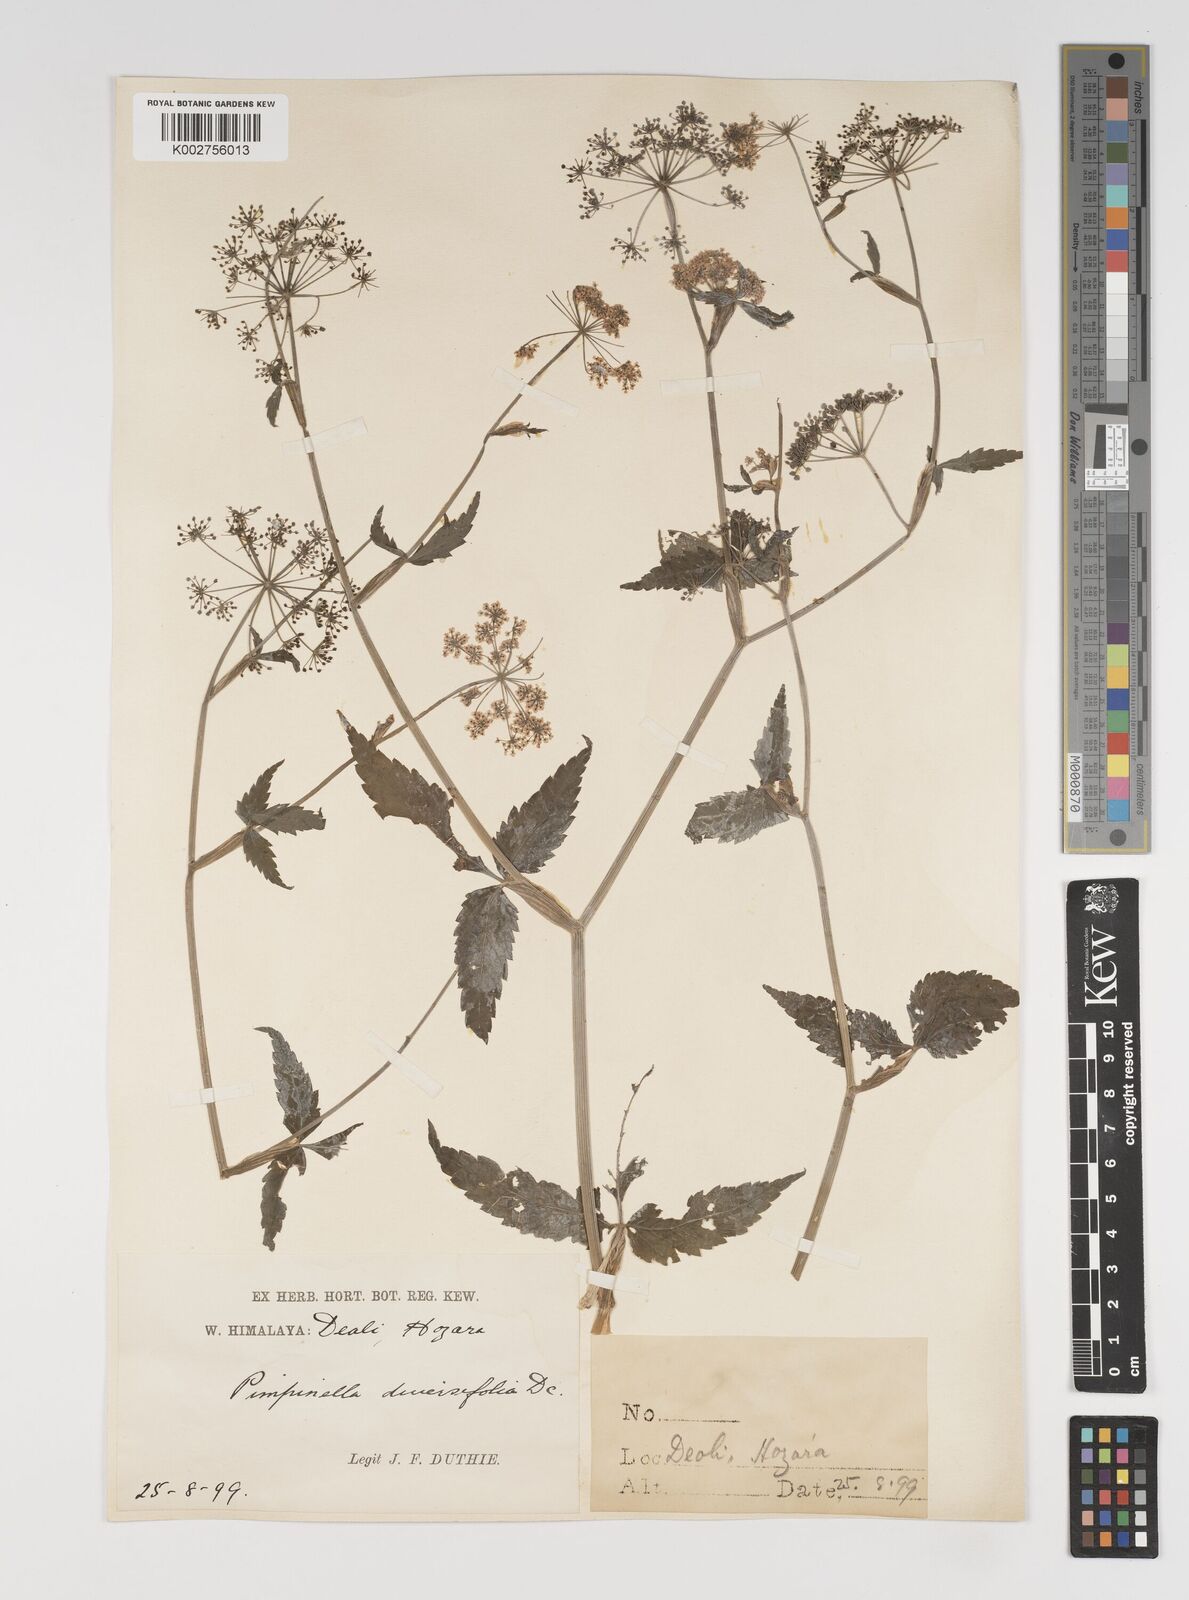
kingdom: Plantae
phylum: Tracheophyta
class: Magnoliopsida
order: Apiales
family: Apiaceae
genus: Pimpinella
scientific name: Pimpinella diversifolia
